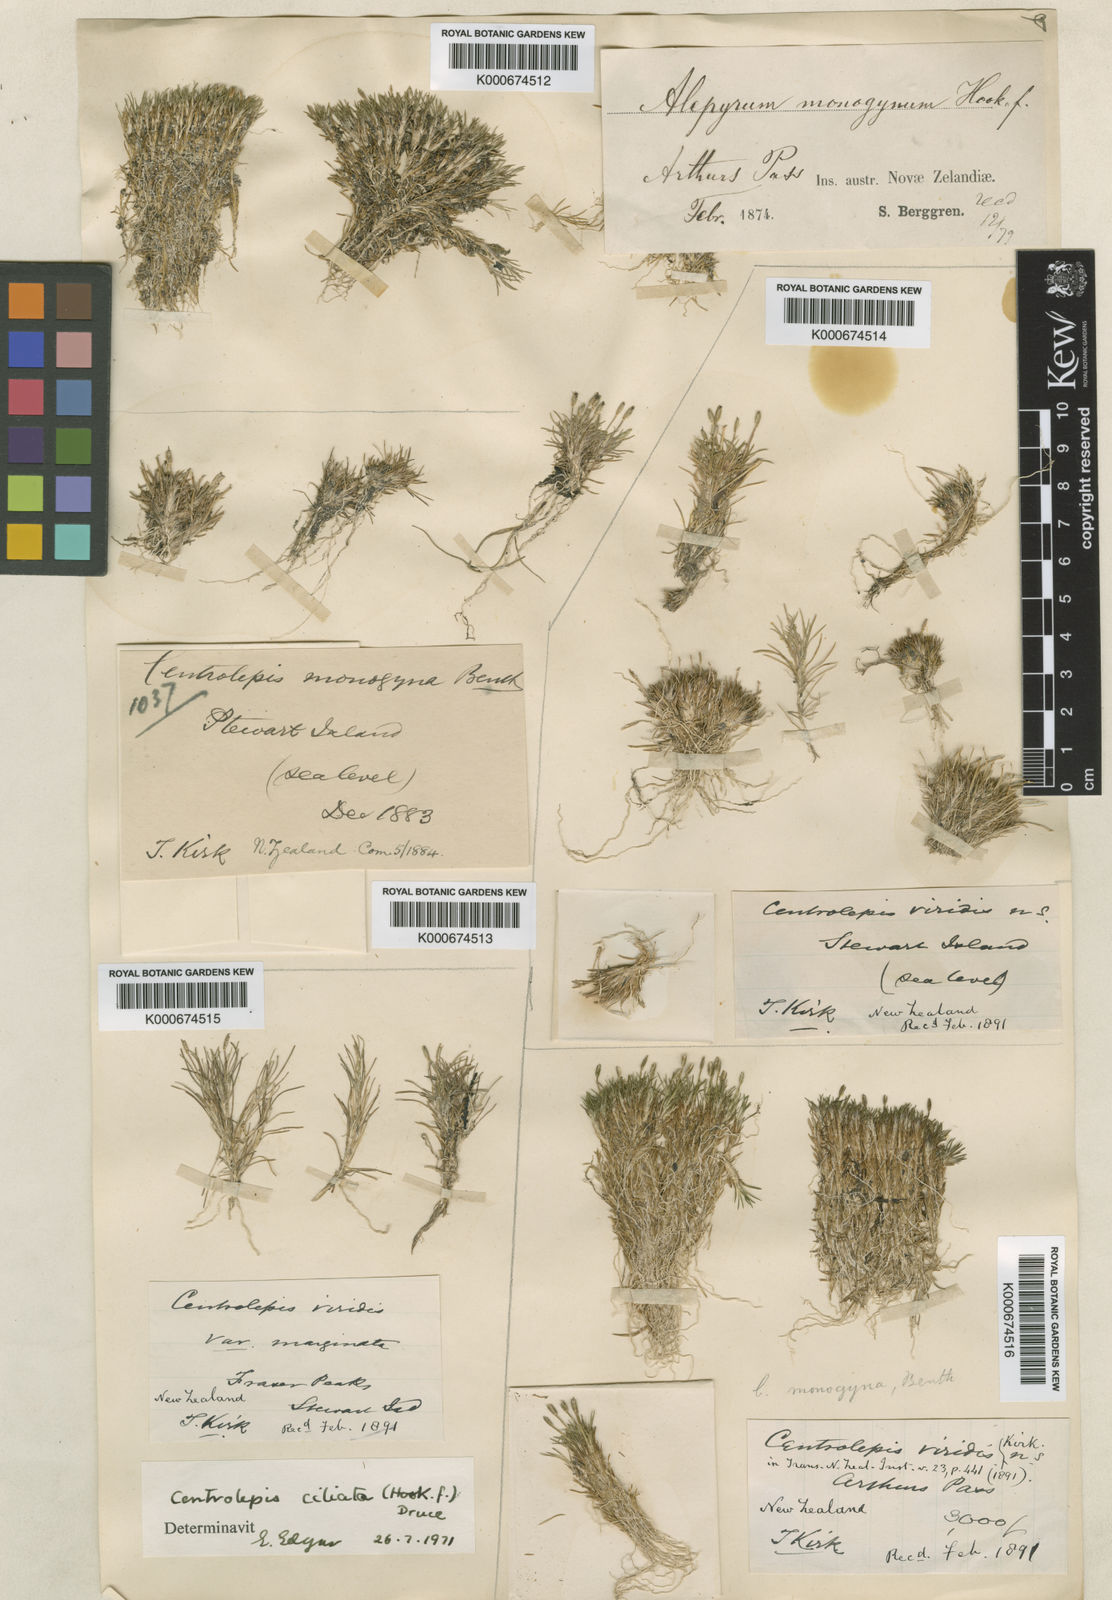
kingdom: Plantae
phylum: Tracheophyta
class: Liliopsida
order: Poales
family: Restionaceae
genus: Centrolepis
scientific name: Centrolepis monogyna
